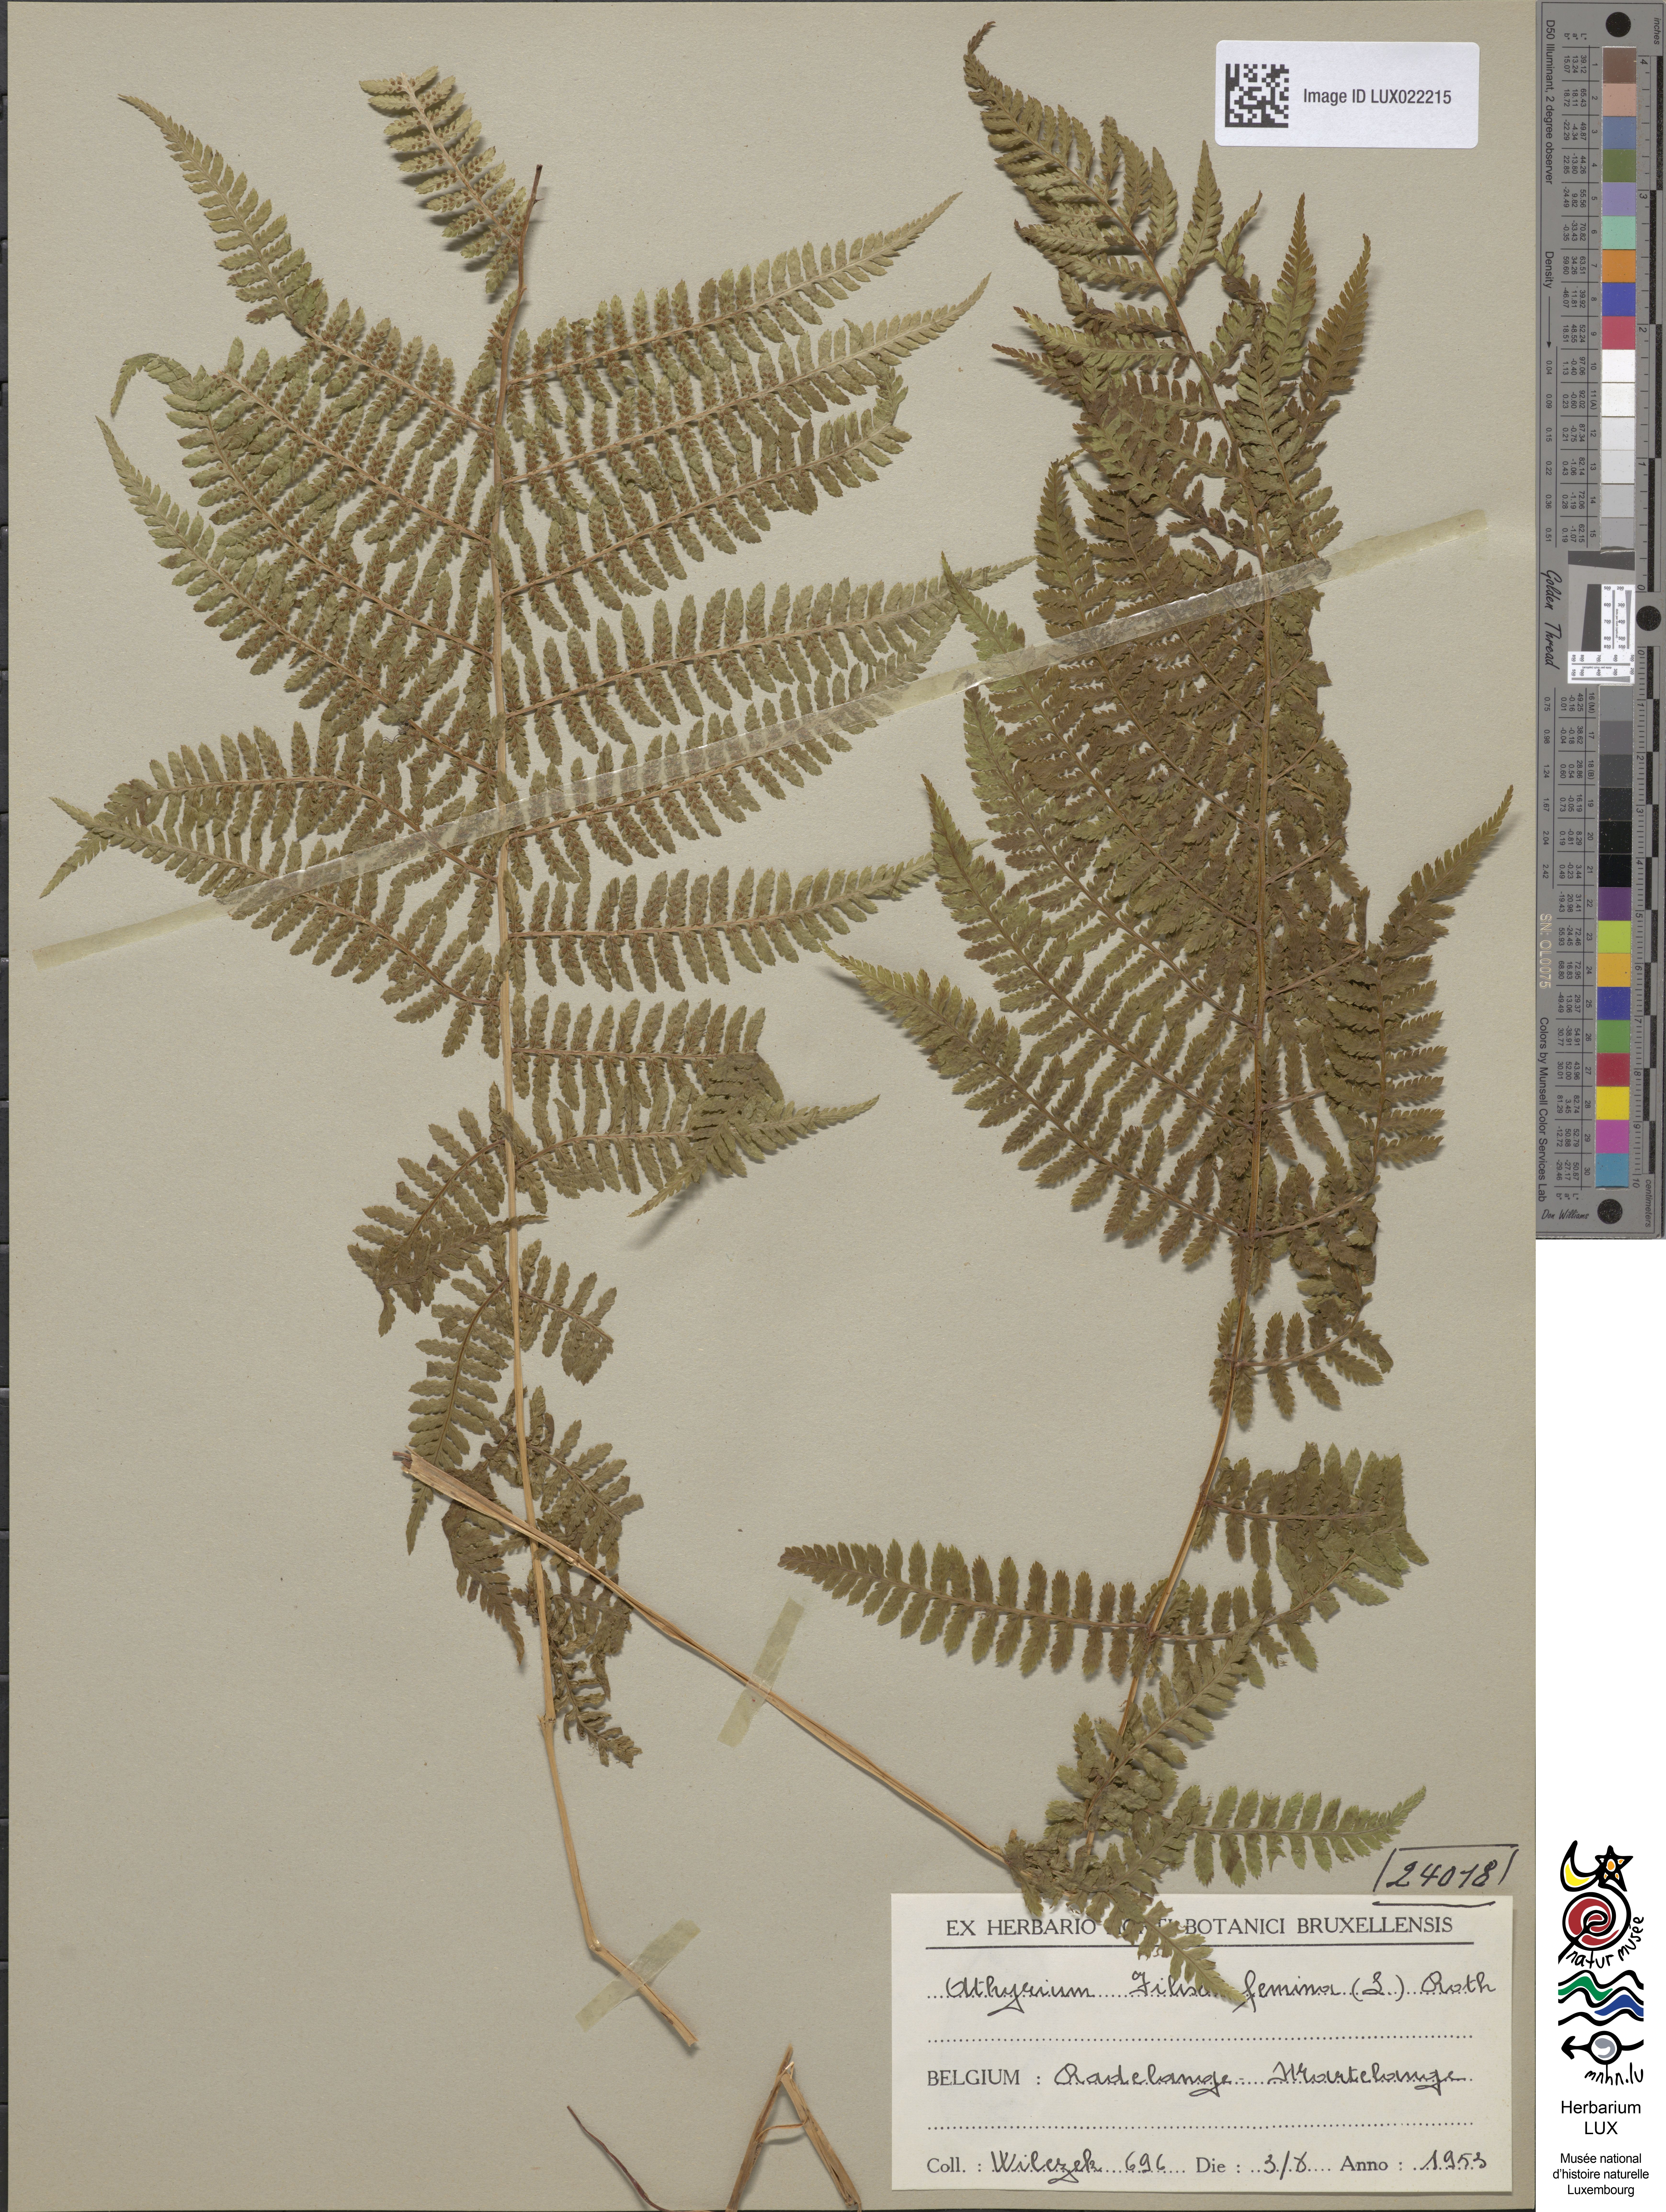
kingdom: Plantae
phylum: Tracheophyta
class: Polypodiopsida
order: Polypodiales
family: Athyriaceae
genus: Athyrium
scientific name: Athyrium filix-femina
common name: Lady fern
